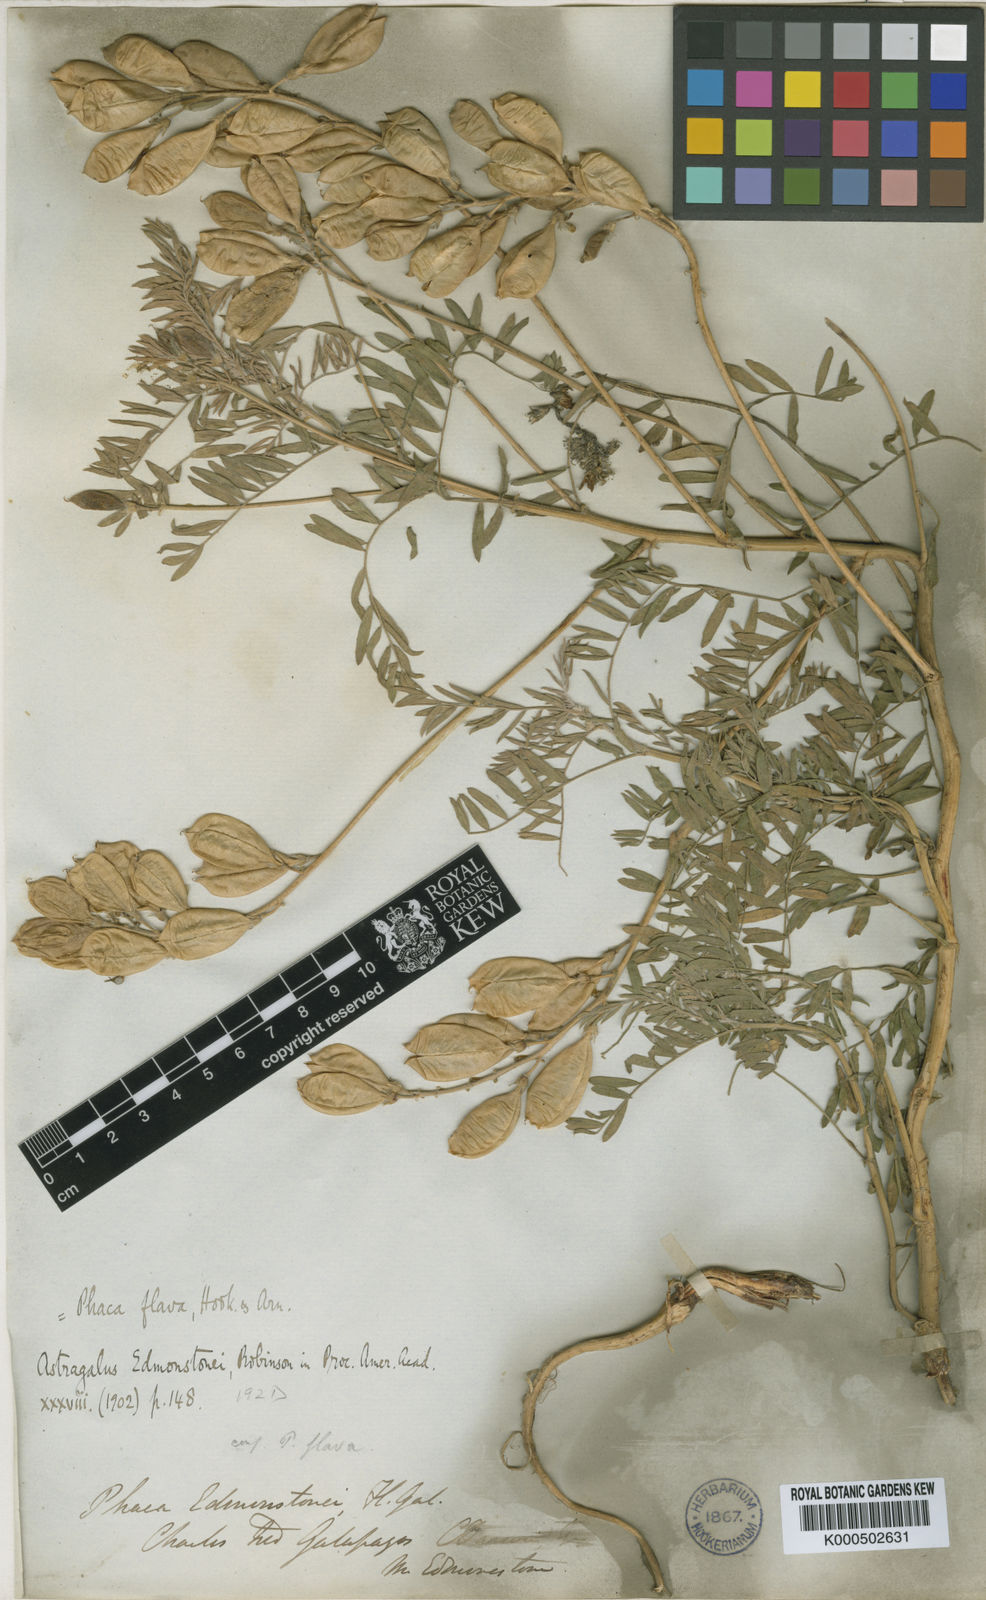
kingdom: Plantae
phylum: Tracheophyta
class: Magnoliopsida
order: Fabales
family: Fabaceae
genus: Astragalus
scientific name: Astragalus
